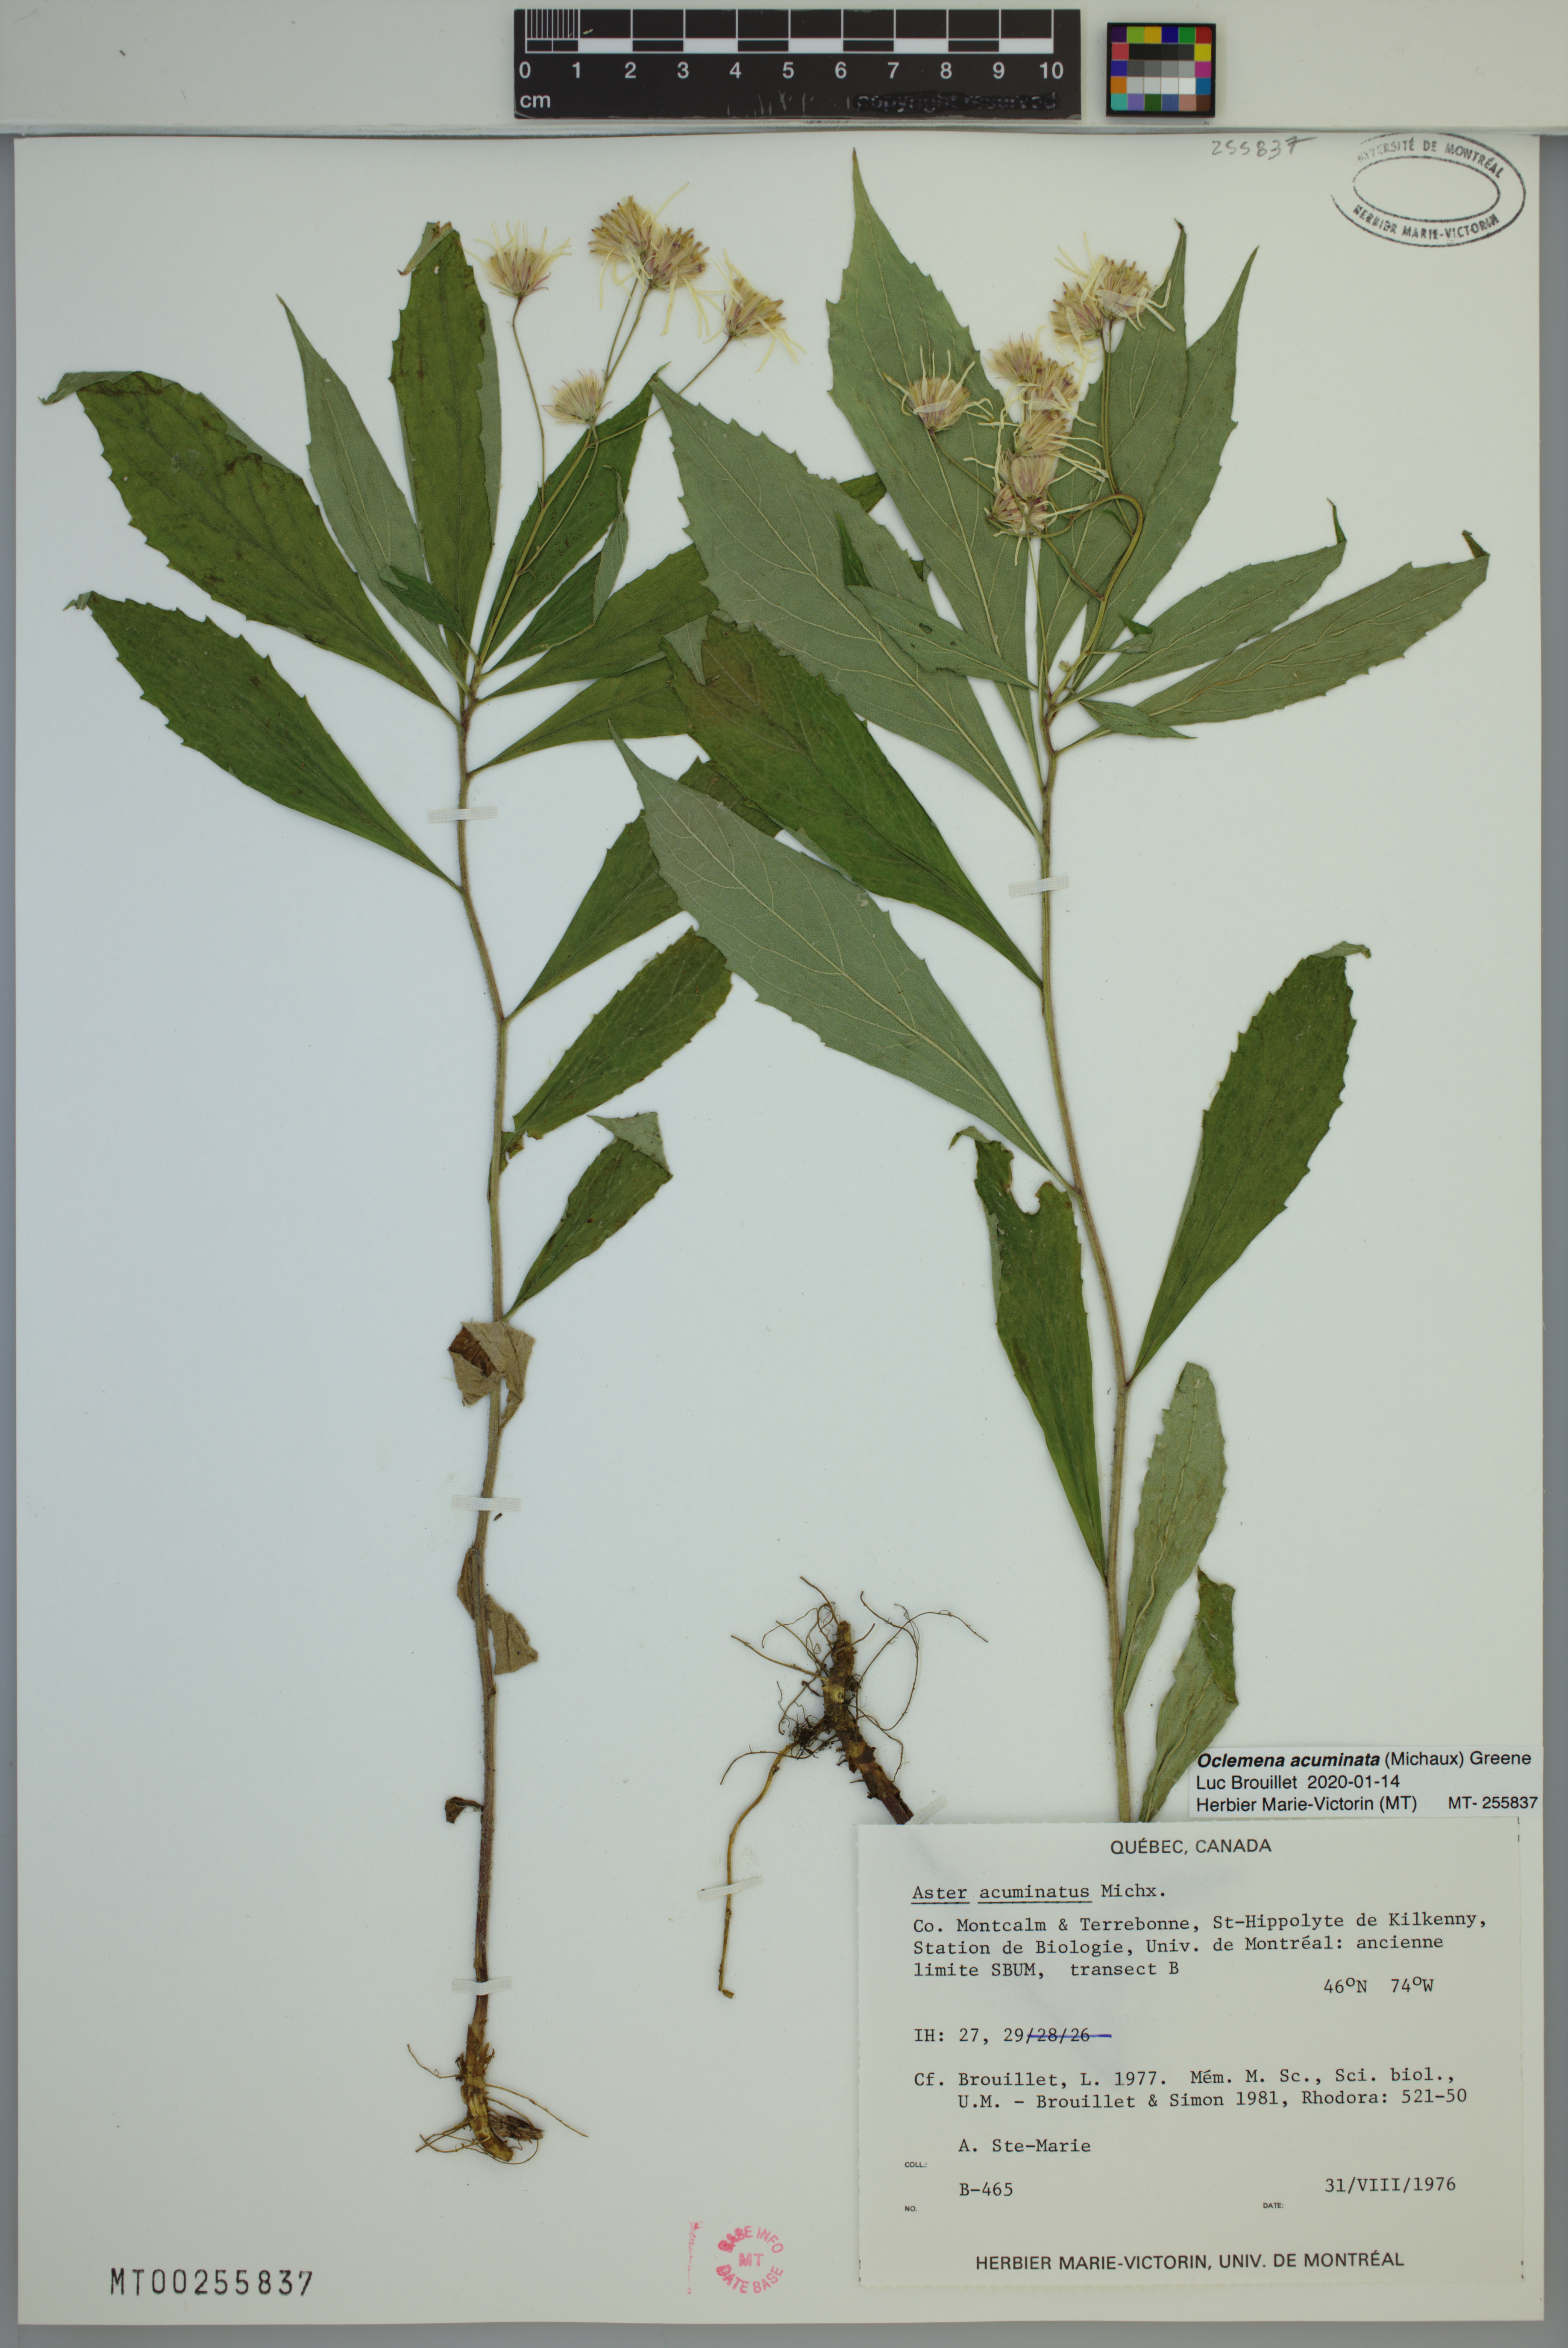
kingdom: Plantae
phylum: Tracheophyta
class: Magnoliopsida
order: Asterales
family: Asteraceae
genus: Oclemena
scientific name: Oclemena acuminata
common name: Mountain aster
